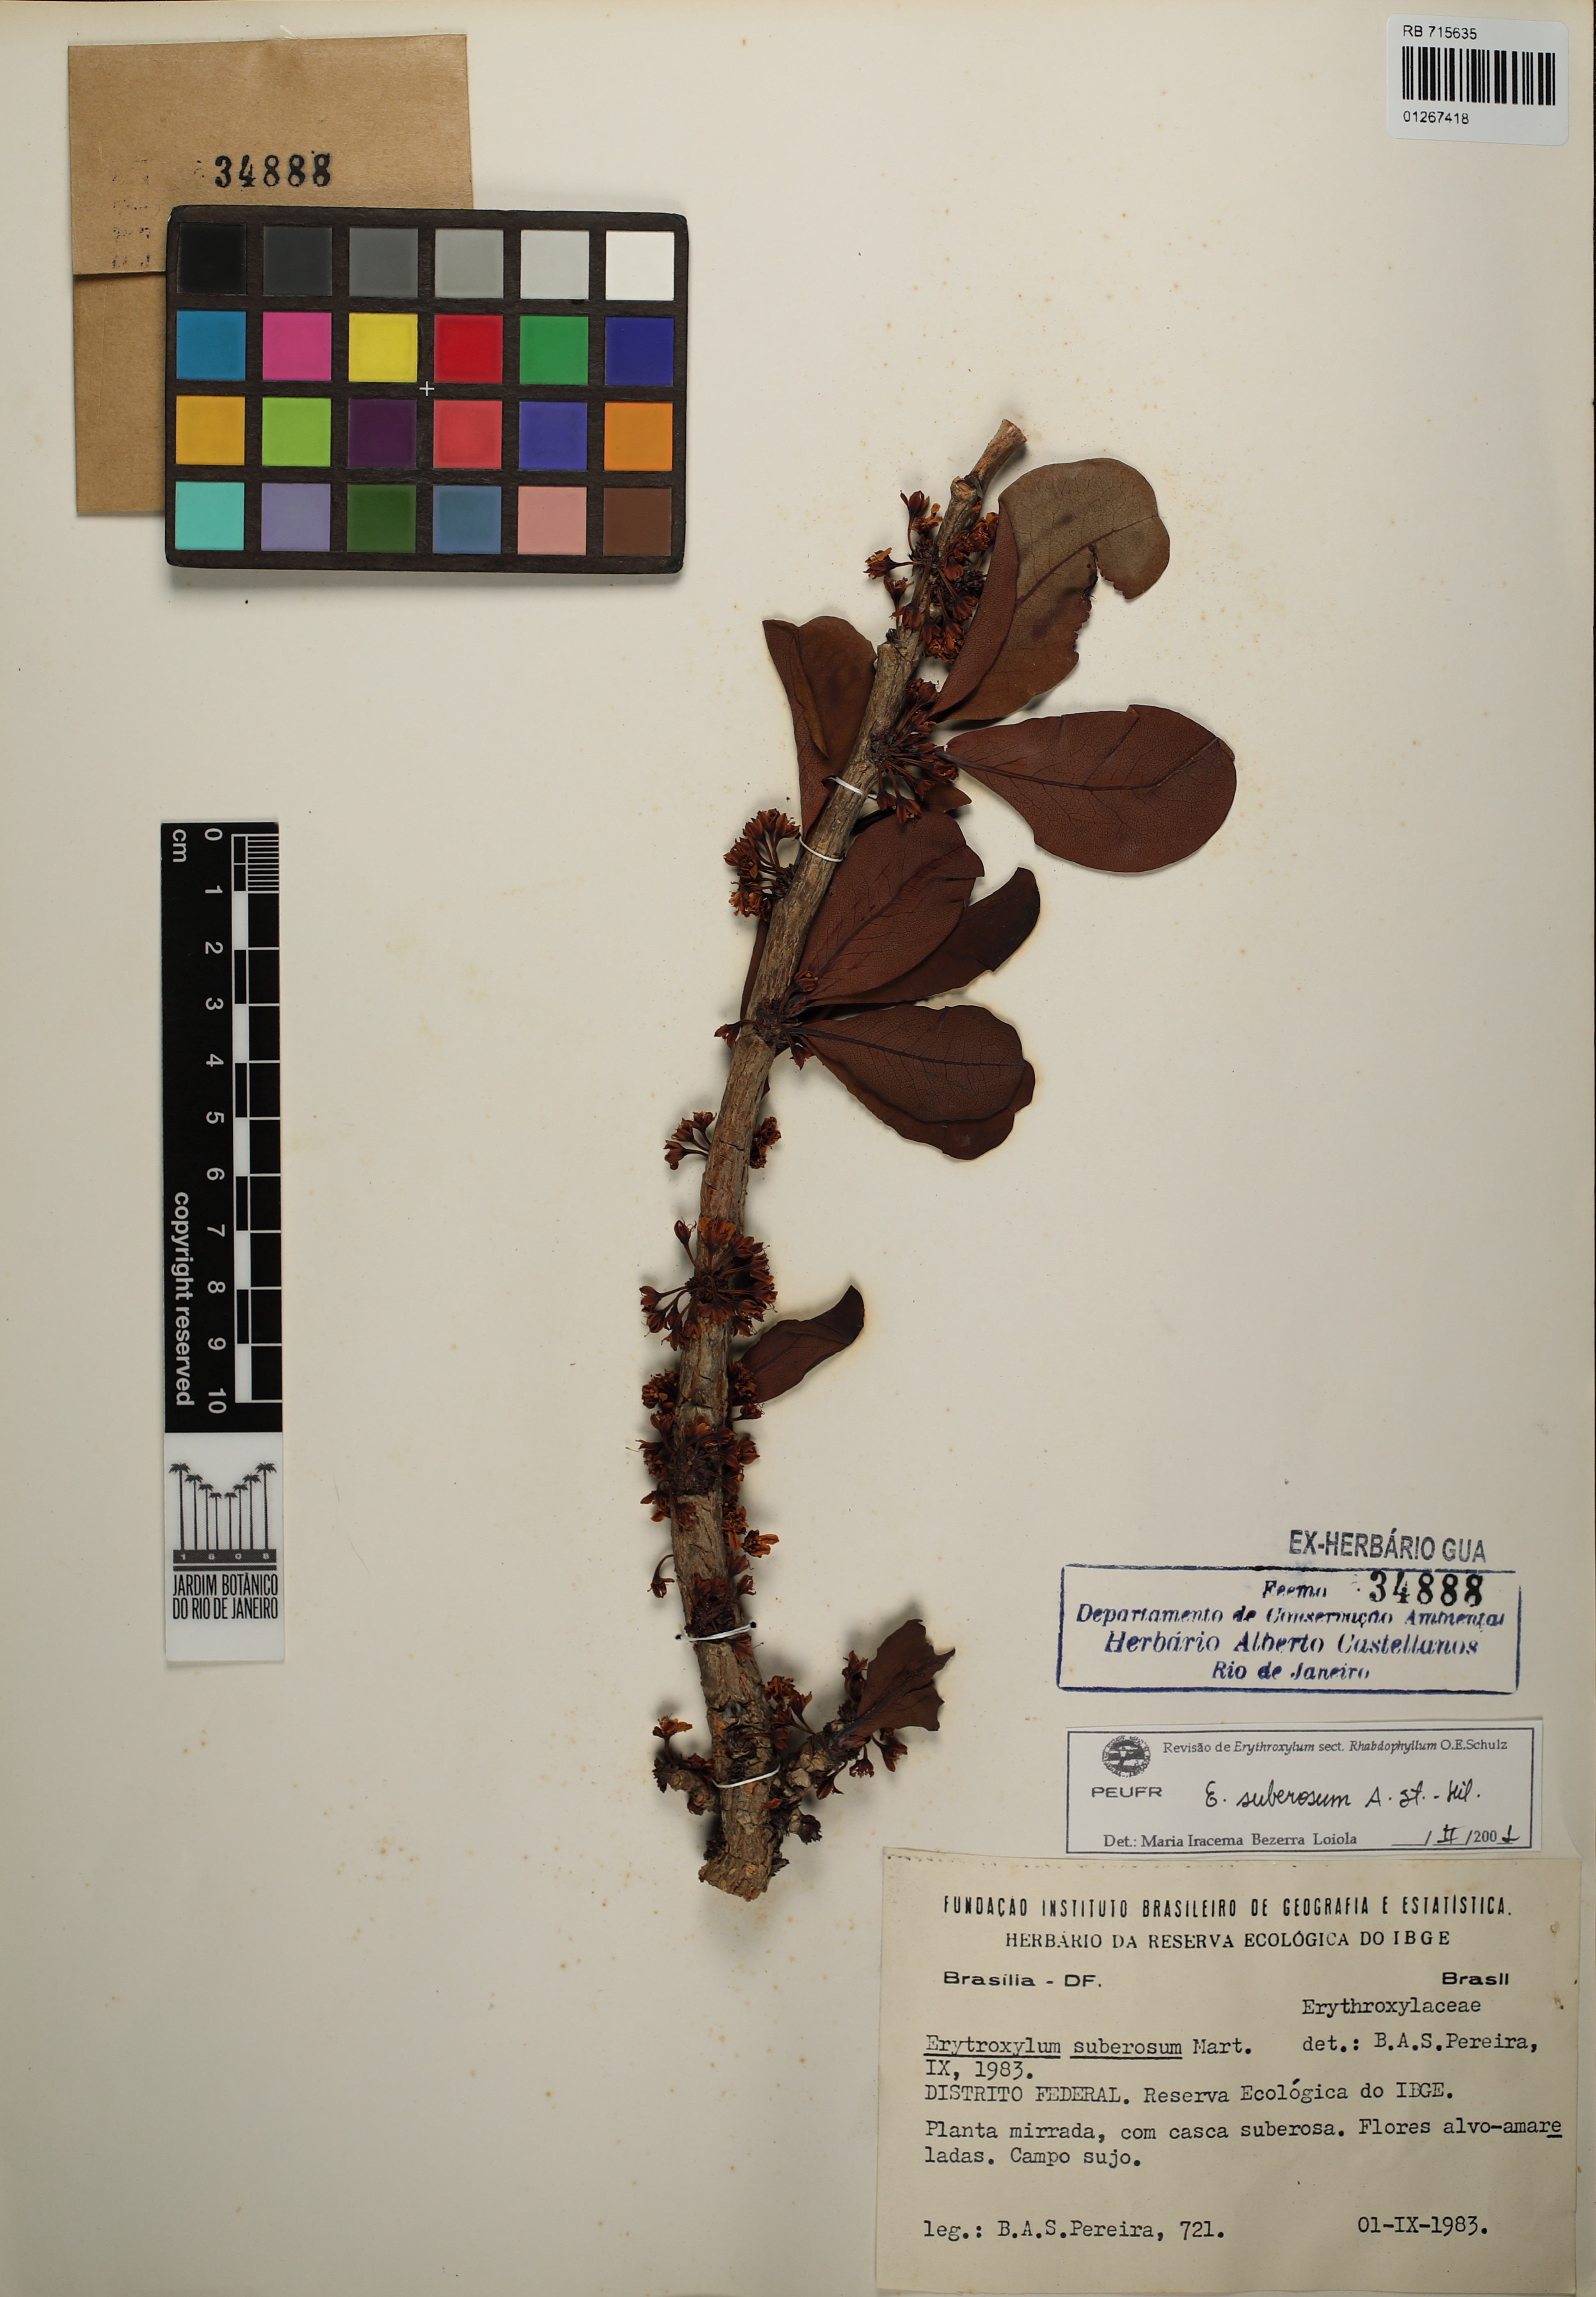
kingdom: Plantae
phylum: Tracheophyta
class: Magnoliopsida
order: Malpighiales
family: Erythroxylaceae
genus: Erythroxylum
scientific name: Erythroxylum suberosum
